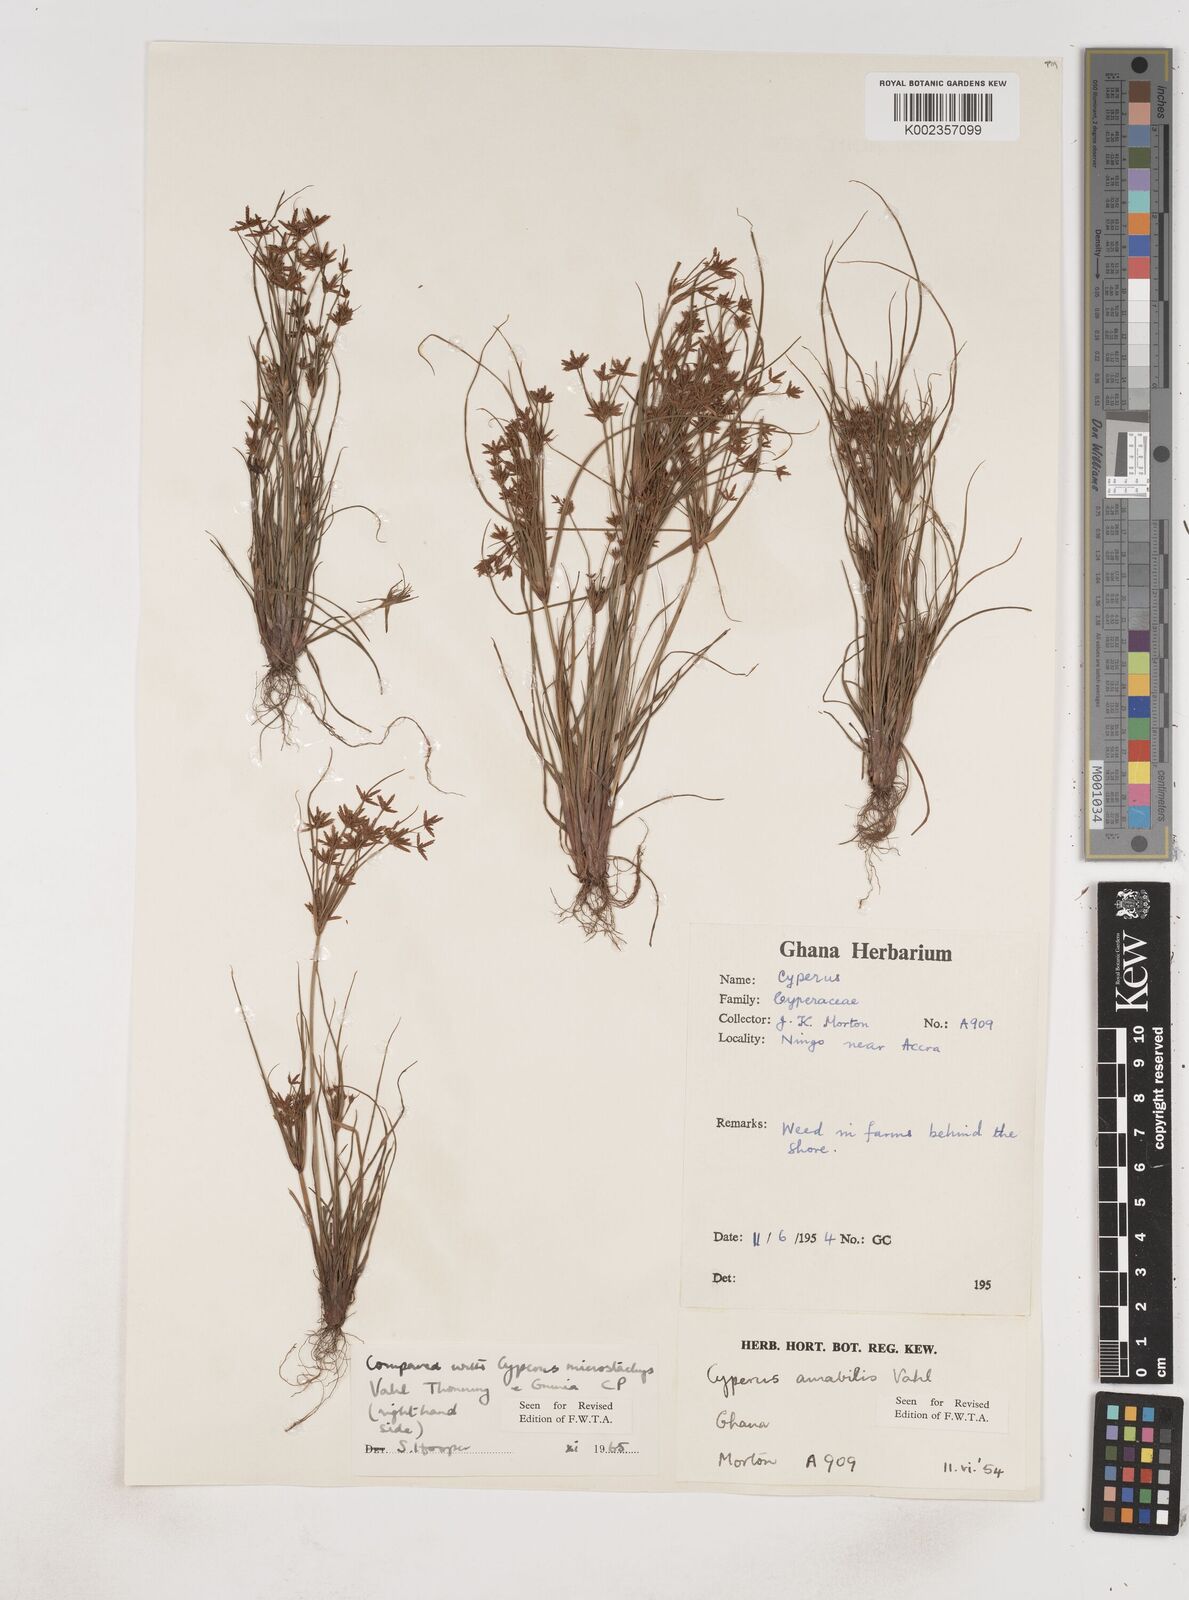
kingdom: Plantae
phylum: Tracheophyta
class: Liliopsida
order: Poales
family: Cyperaceae
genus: Cyperus
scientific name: Cyperus amabilis
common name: Foothill flat sedge
